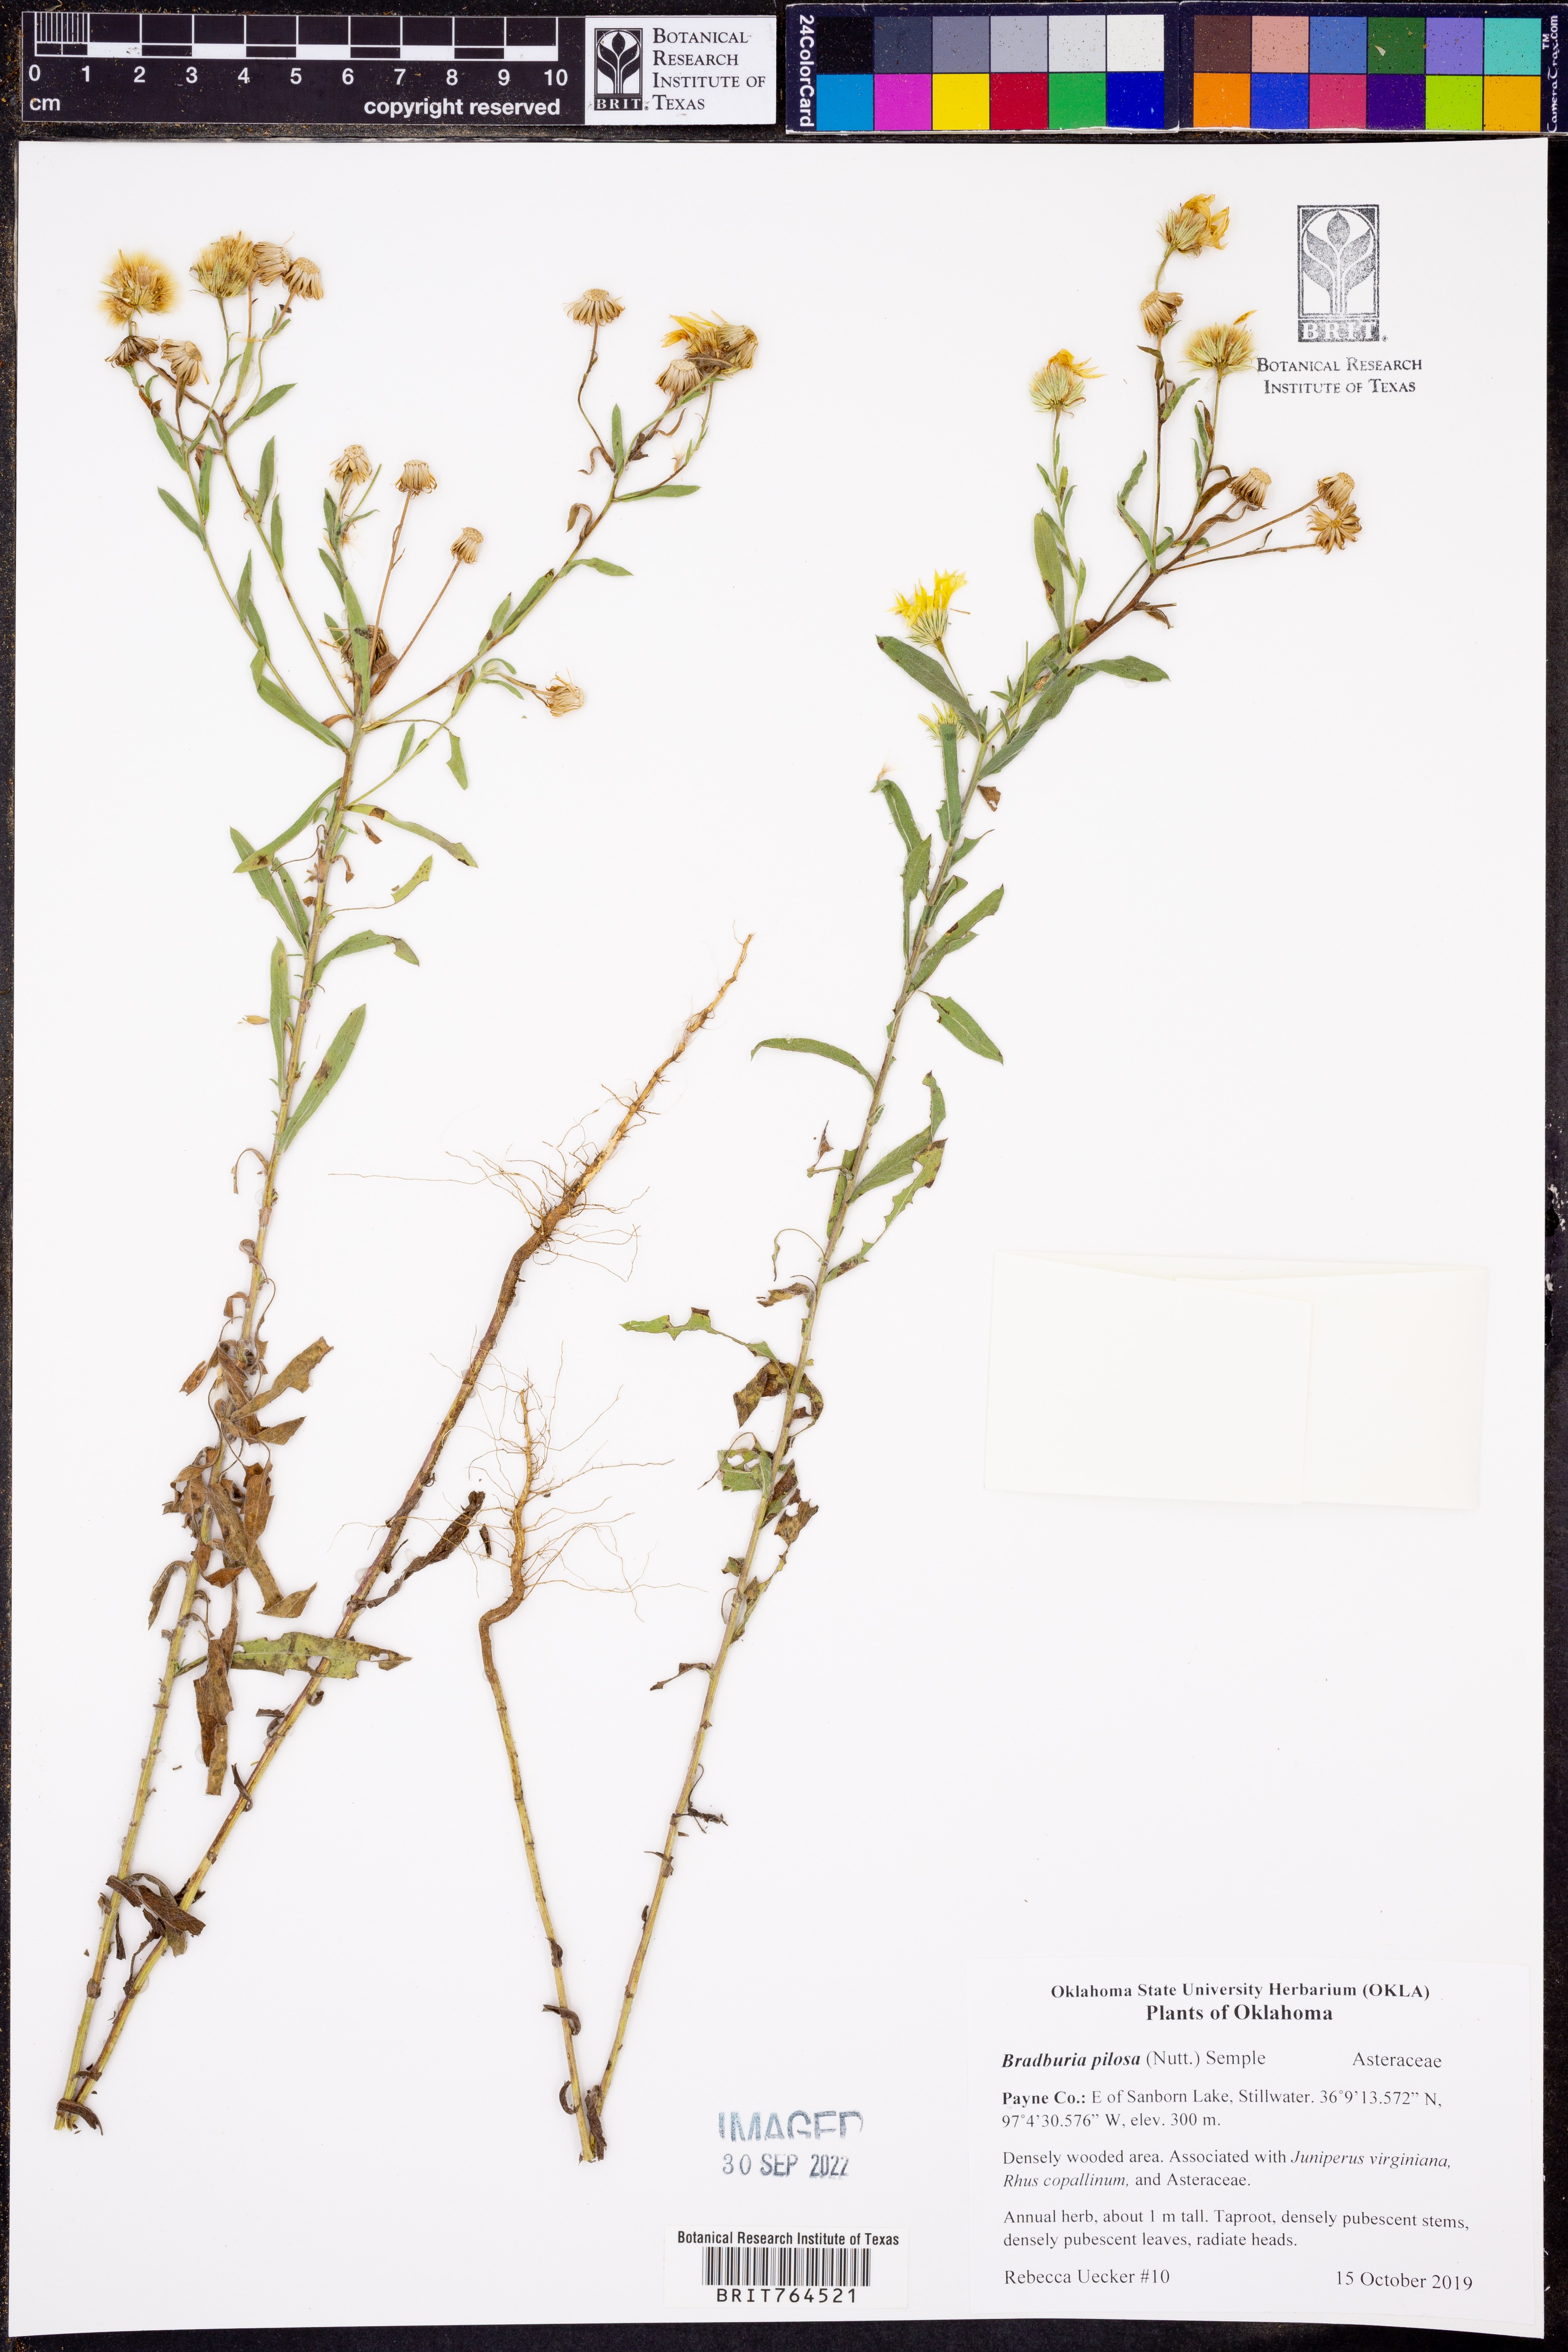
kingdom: Plantae
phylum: Tracheophyta
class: Magnoliopsida
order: Asterales
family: Asteraceae
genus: Bradburia
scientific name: Bradburia pilosa
